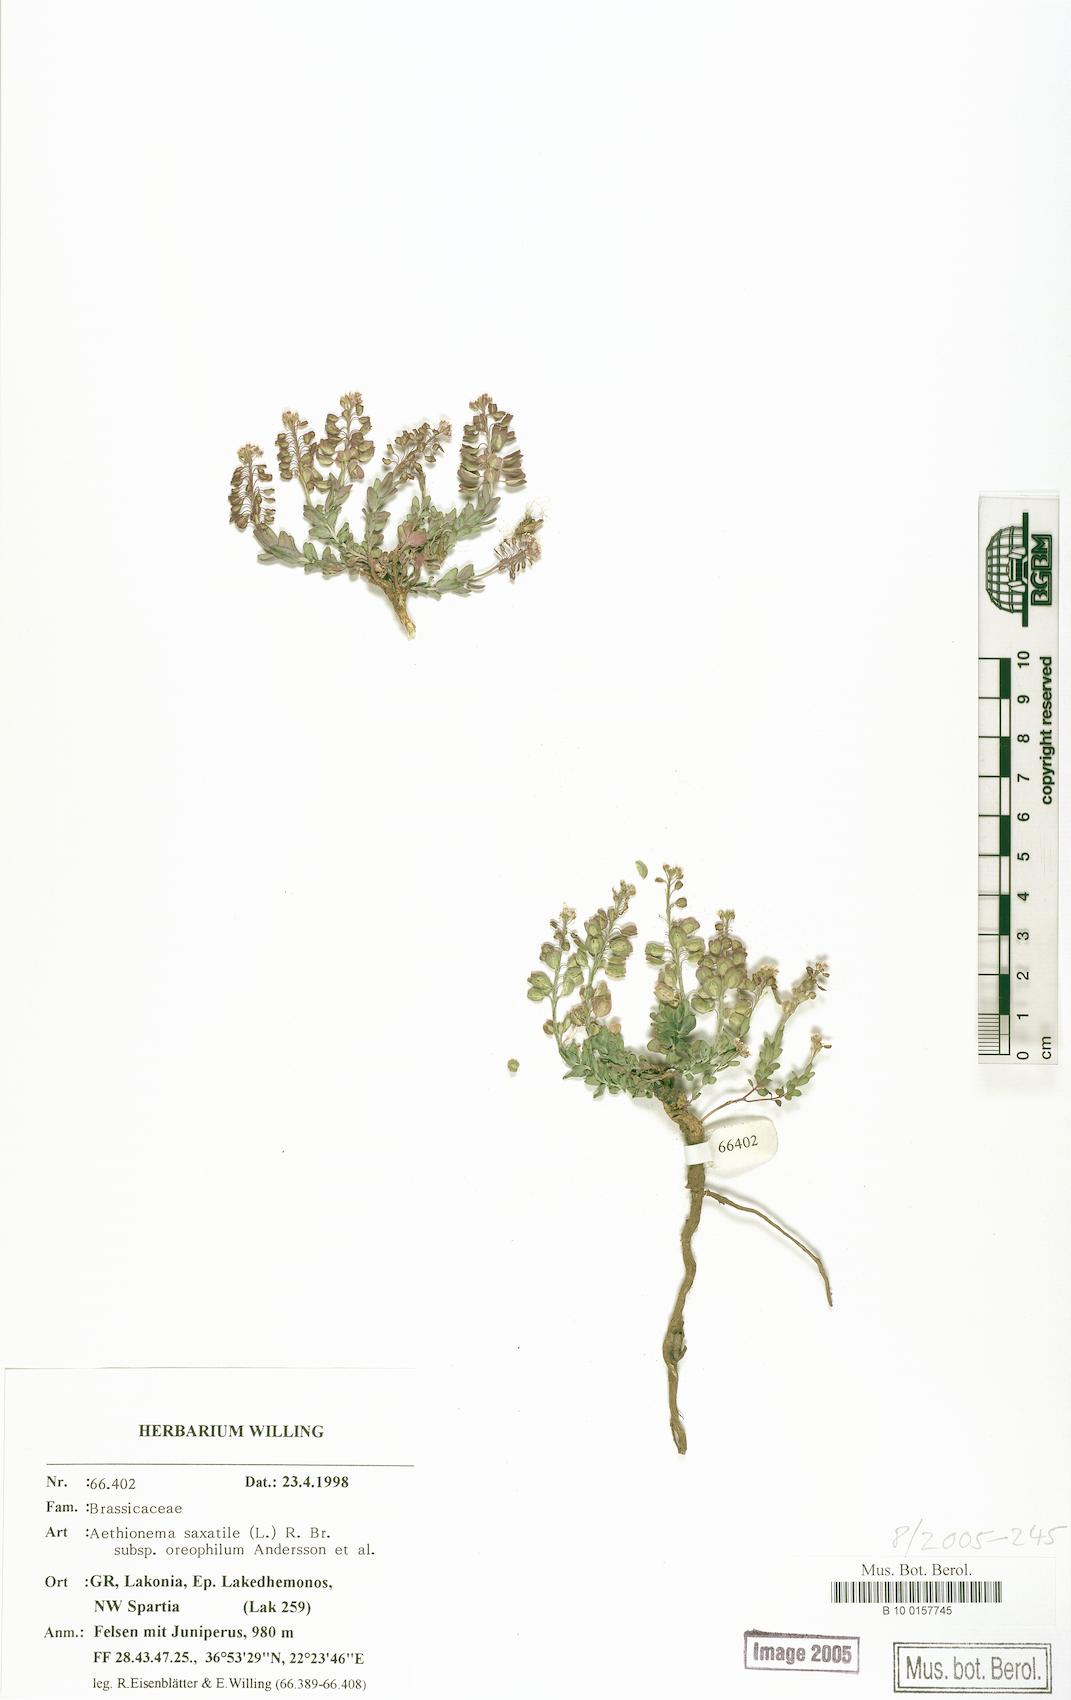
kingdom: Plantae
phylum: Tracheophyta
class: Magnoliopsida
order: Brassicales
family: Brassicaceae
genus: Aethionema
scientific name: Aethionema saxatile
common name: Burnt candytuft
